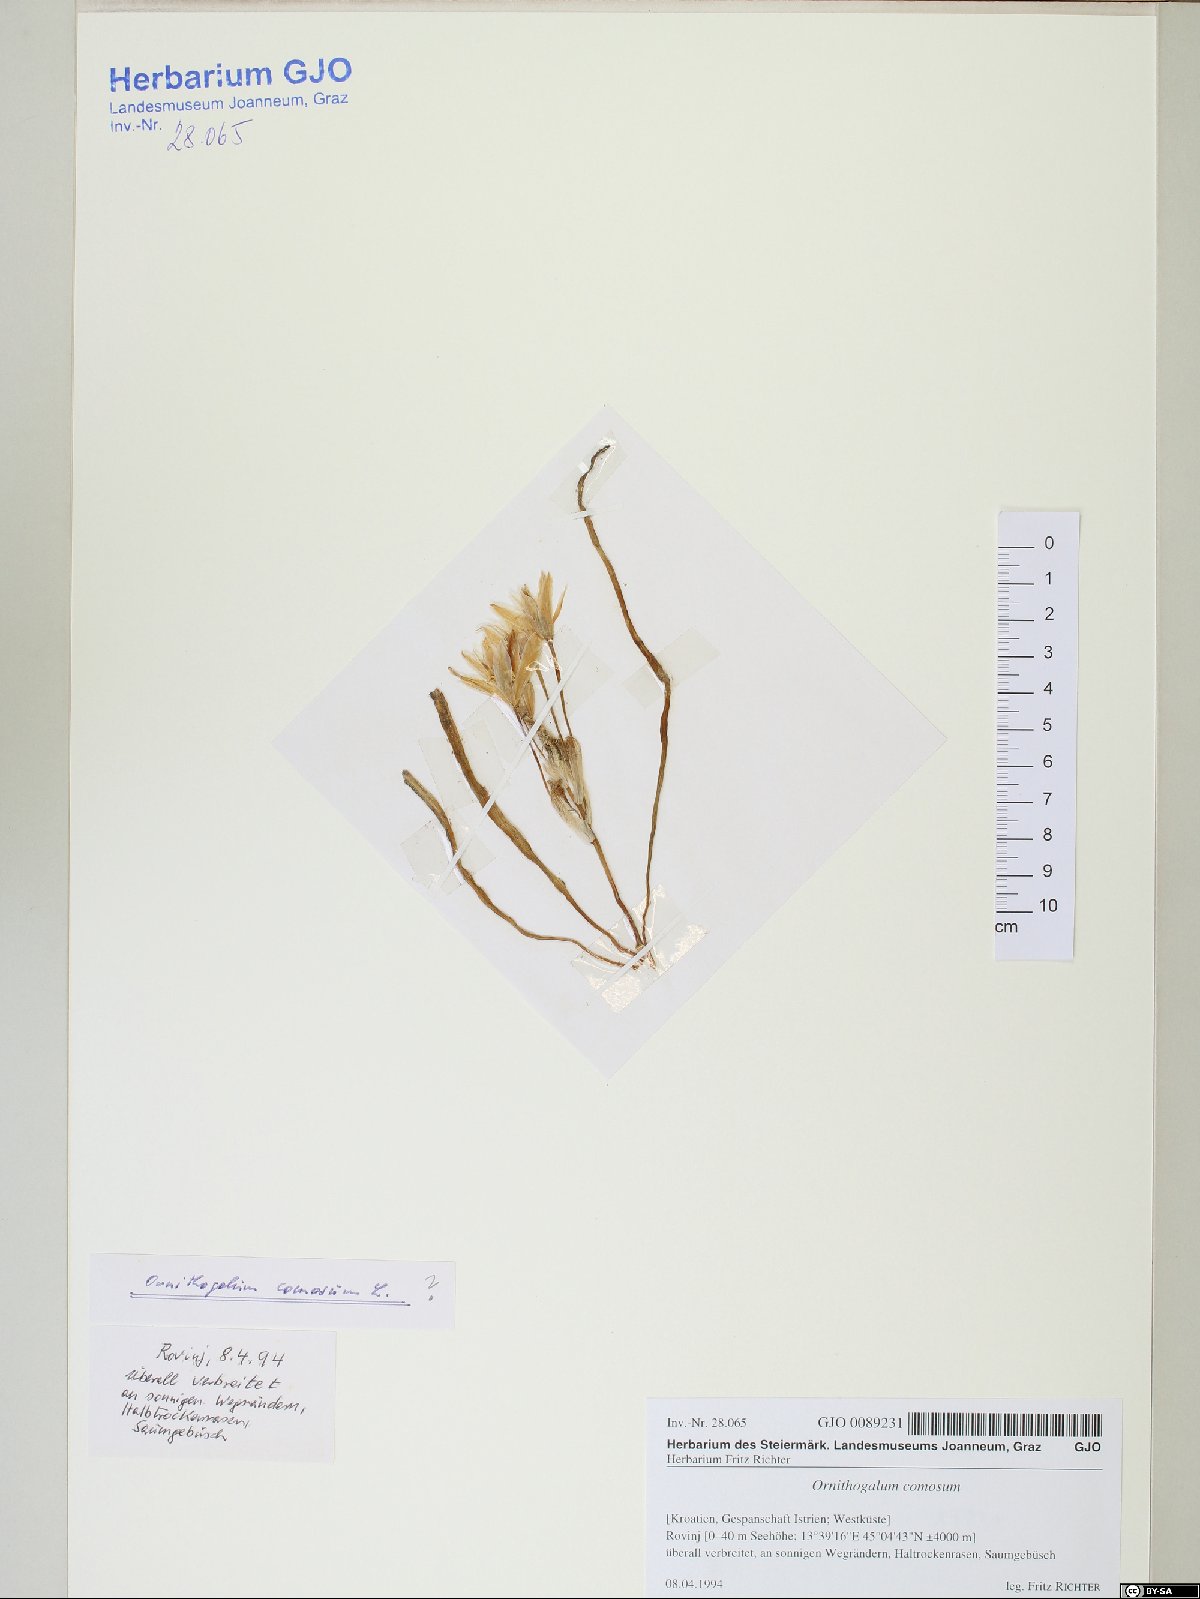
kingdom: Plantae
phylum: Tracheophyta
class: Liliopsida
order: Asparagales
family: Asparagaceae
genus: Ornithogalum
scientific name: Ornithogalum comosum
